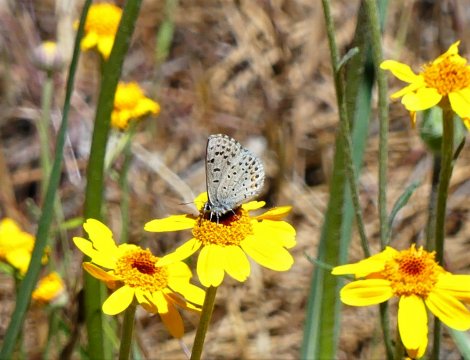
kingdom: Animalia
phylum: Arthropoda
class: Insecta
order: Lepidoptera
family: Lycaenidae
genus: Plebejus
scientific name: Plebejus saepiolus
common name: Greenish Blue
